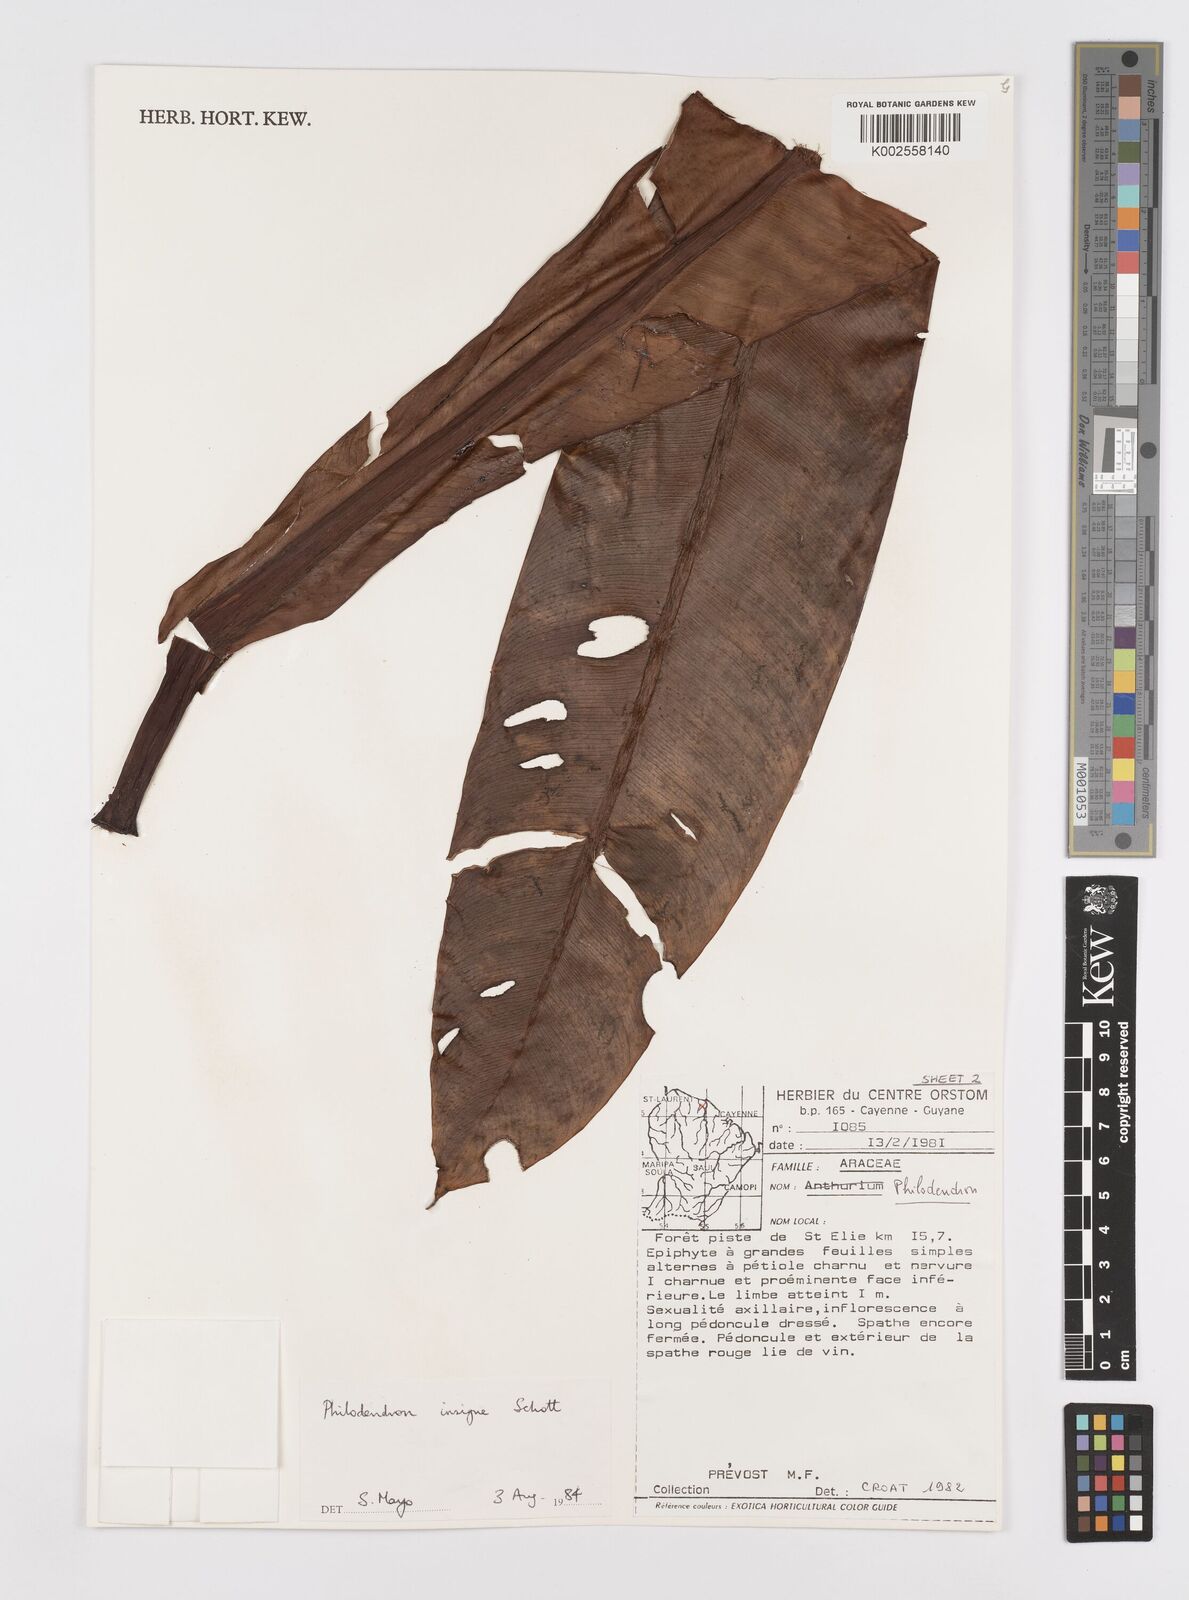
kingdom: Plantae
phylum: Tracheophyta
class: Liliopsida
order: Alismatales
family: Araceae
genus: Philodendron
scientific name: Philodendron insigne
